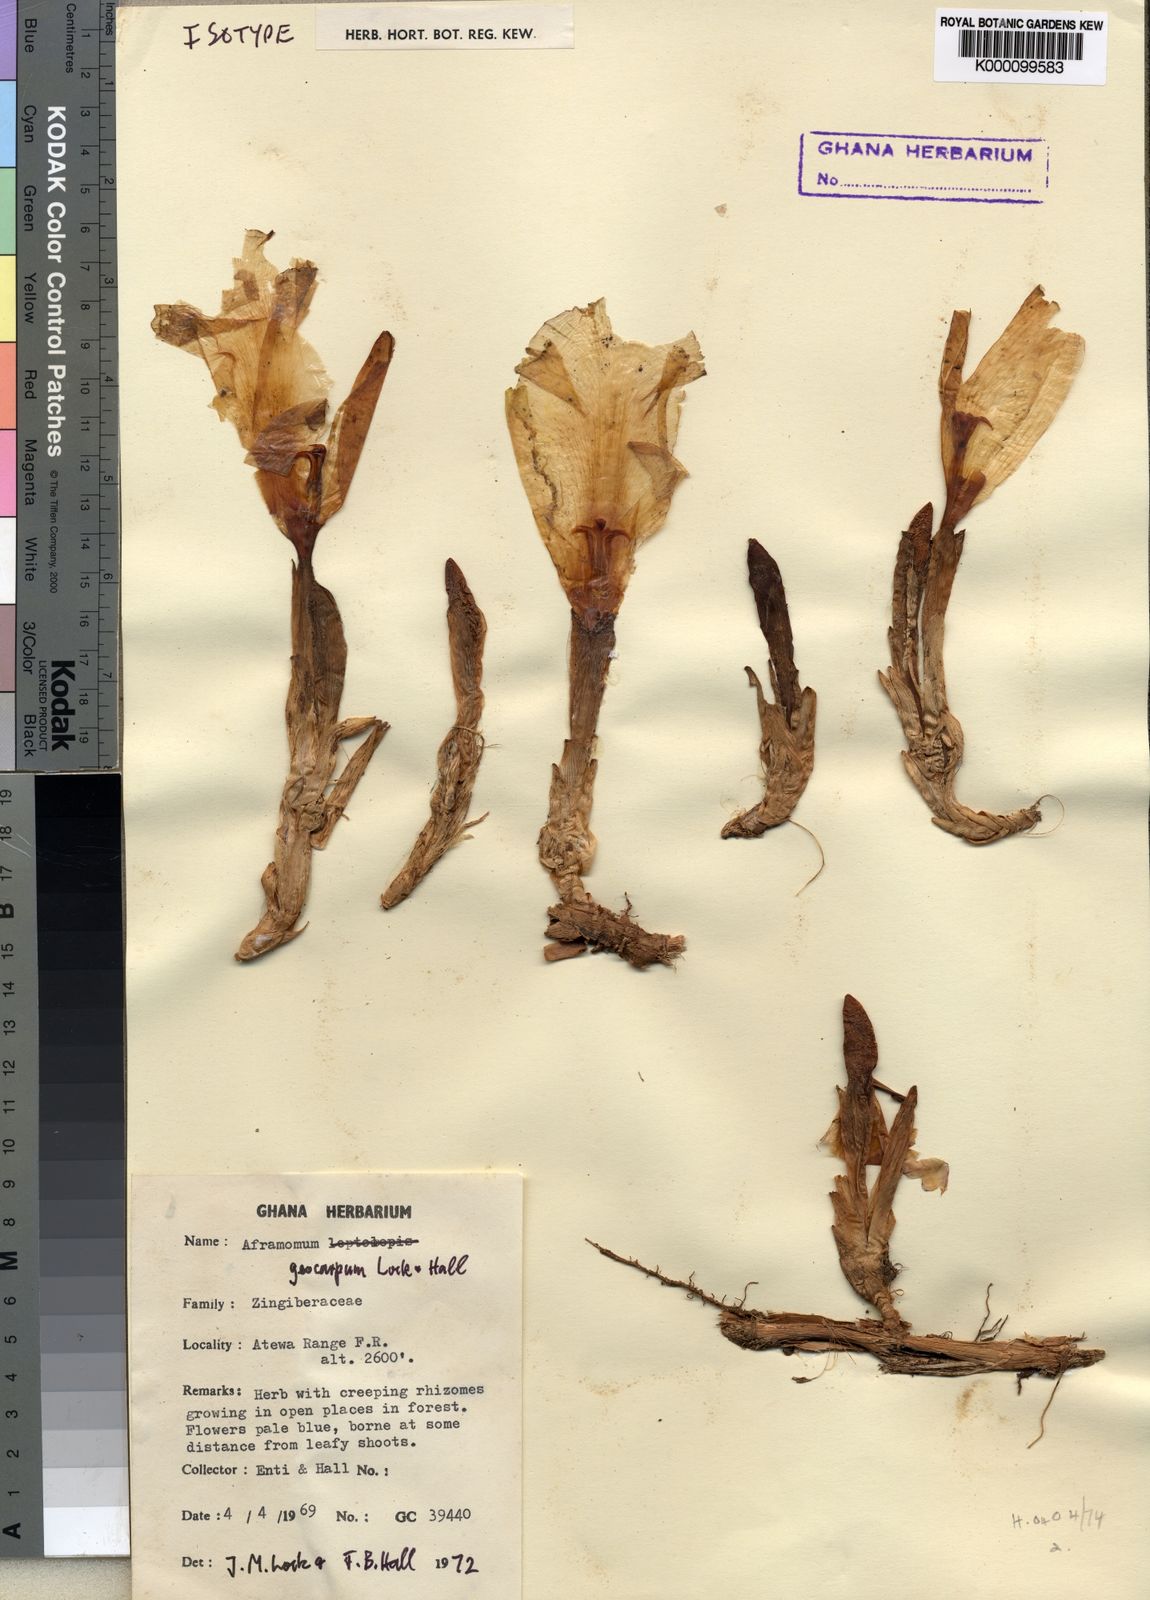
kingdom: Plantae
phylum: Tracheophyta
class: Liliopsida
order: Zingiberales
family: Zingiberaceae
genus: Aframomum
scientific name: Aframomum limbatum
